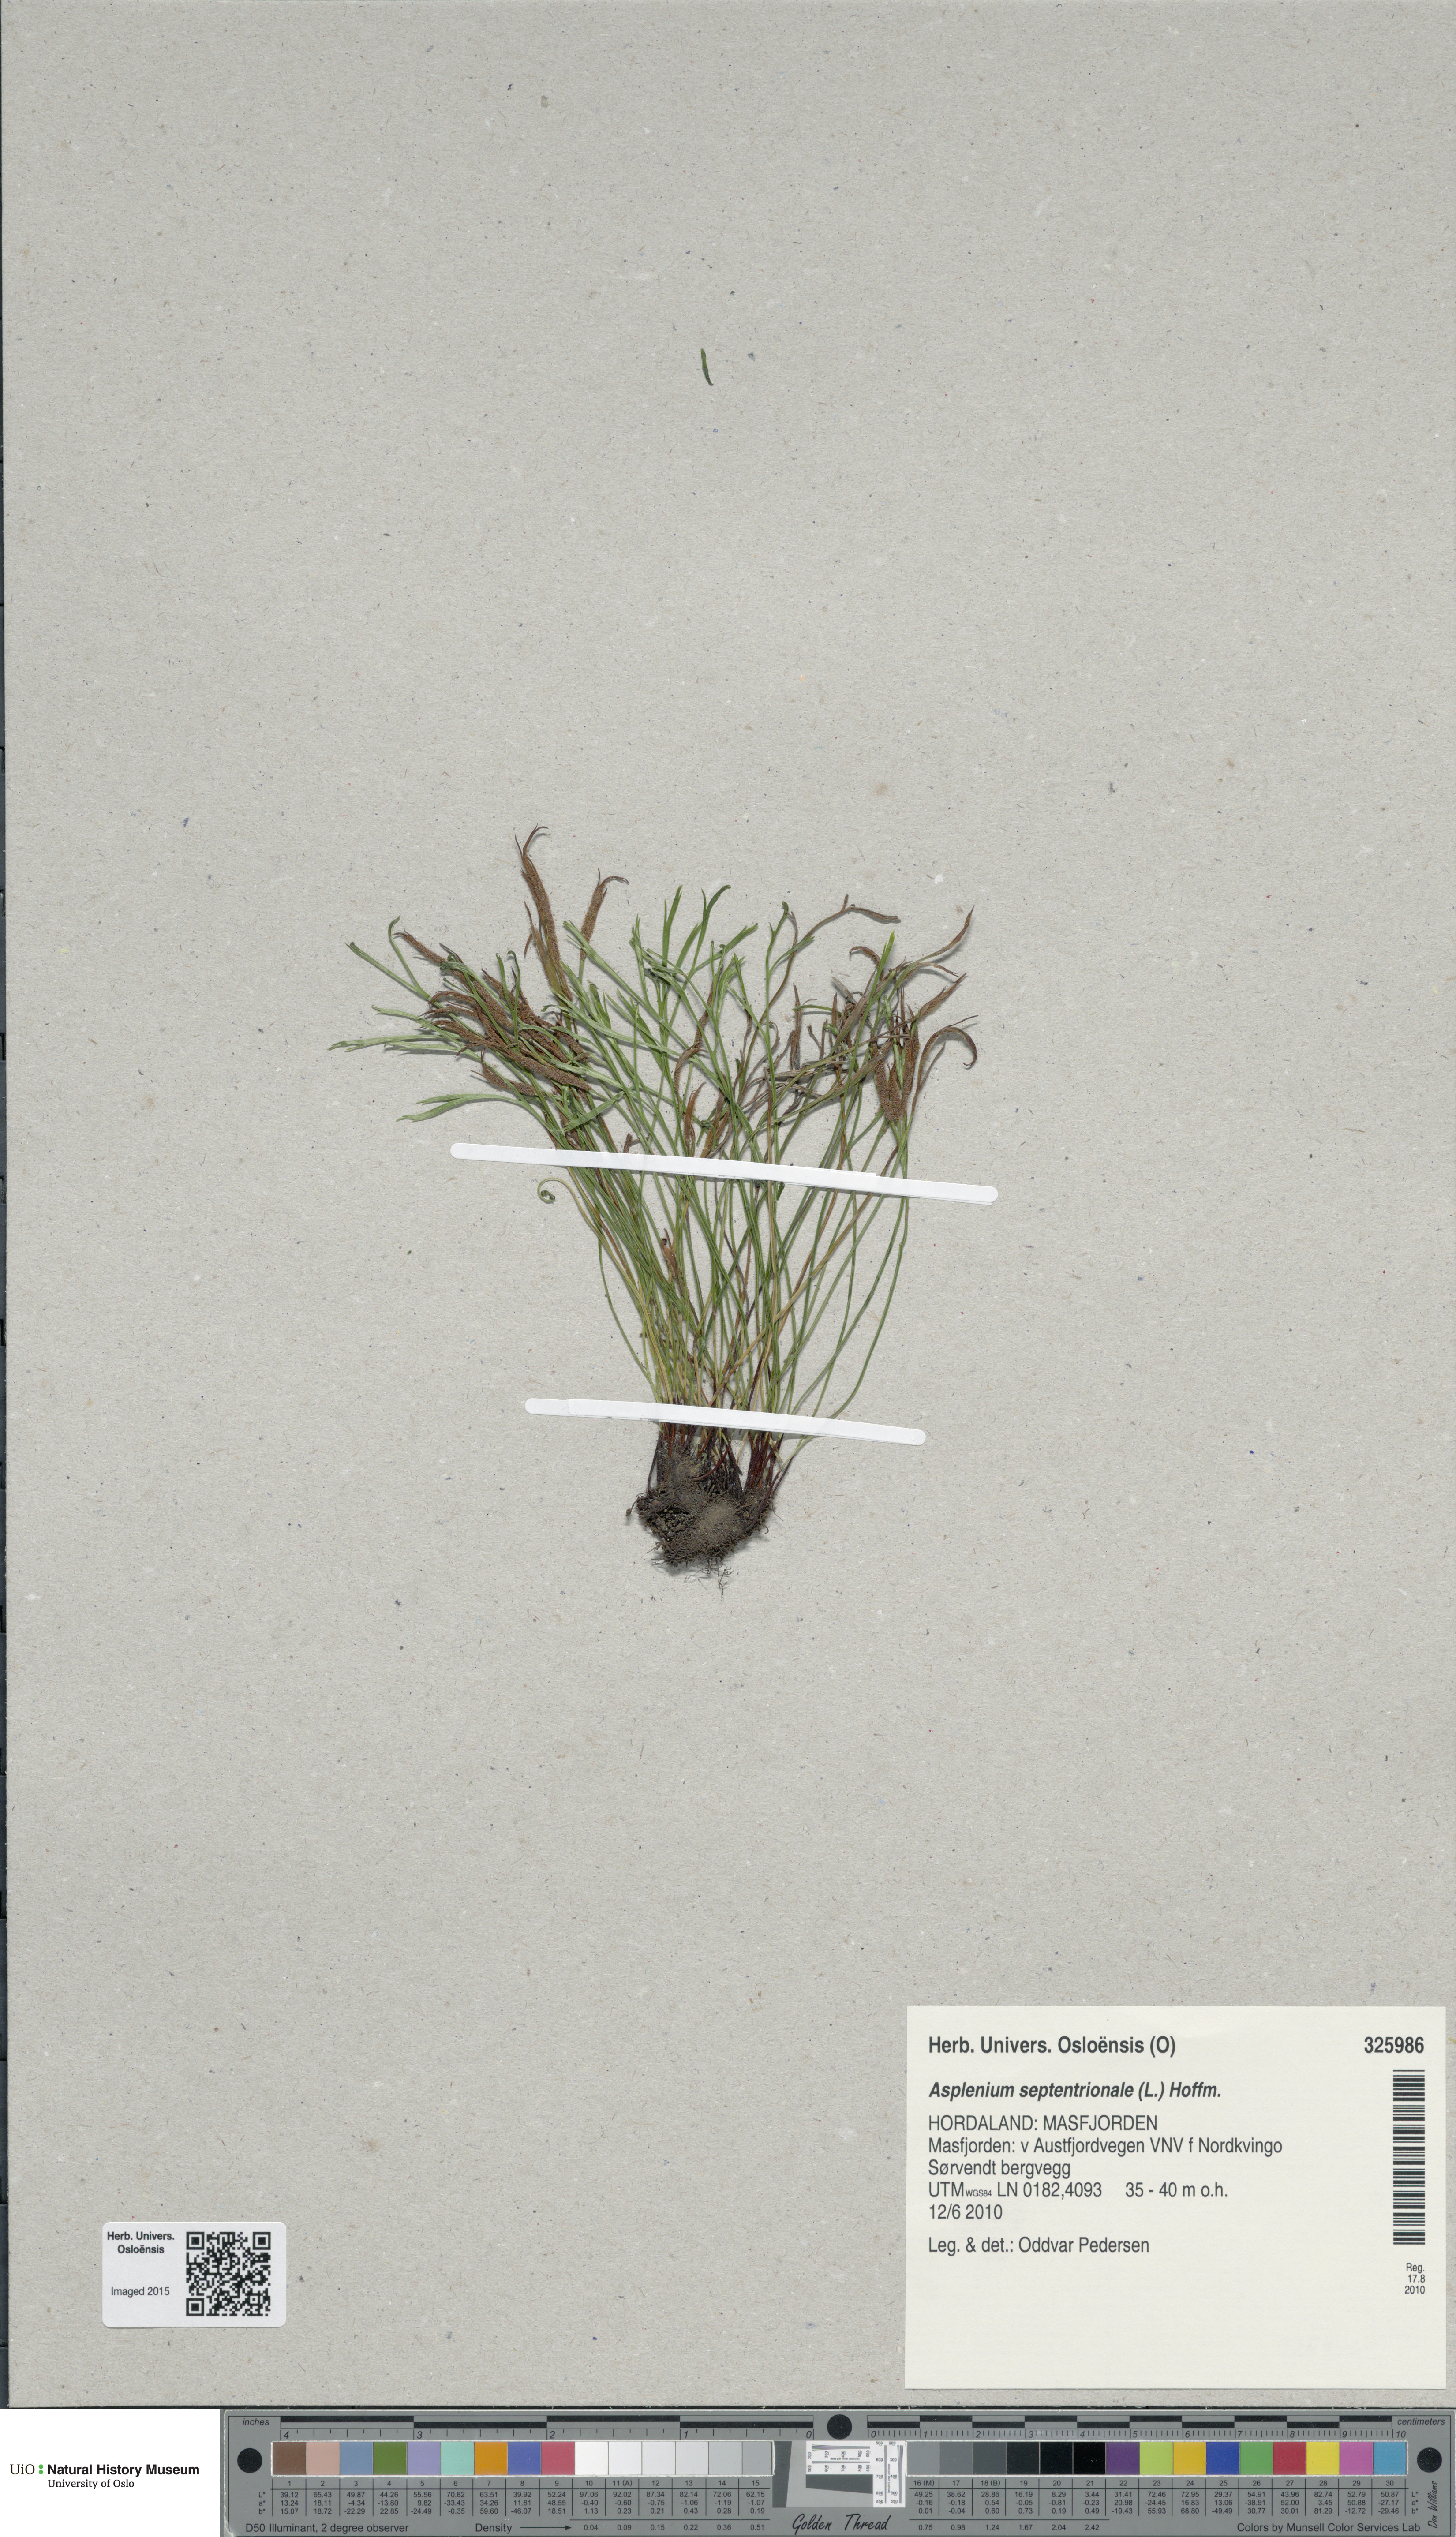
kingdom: Plantae
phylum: Tracheophyta
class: Polypodiopsida
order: Polypodiales
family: Aspleniaceae
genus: Asplenium
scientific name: Asplenium septentrionale
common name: Forked spleenwort
